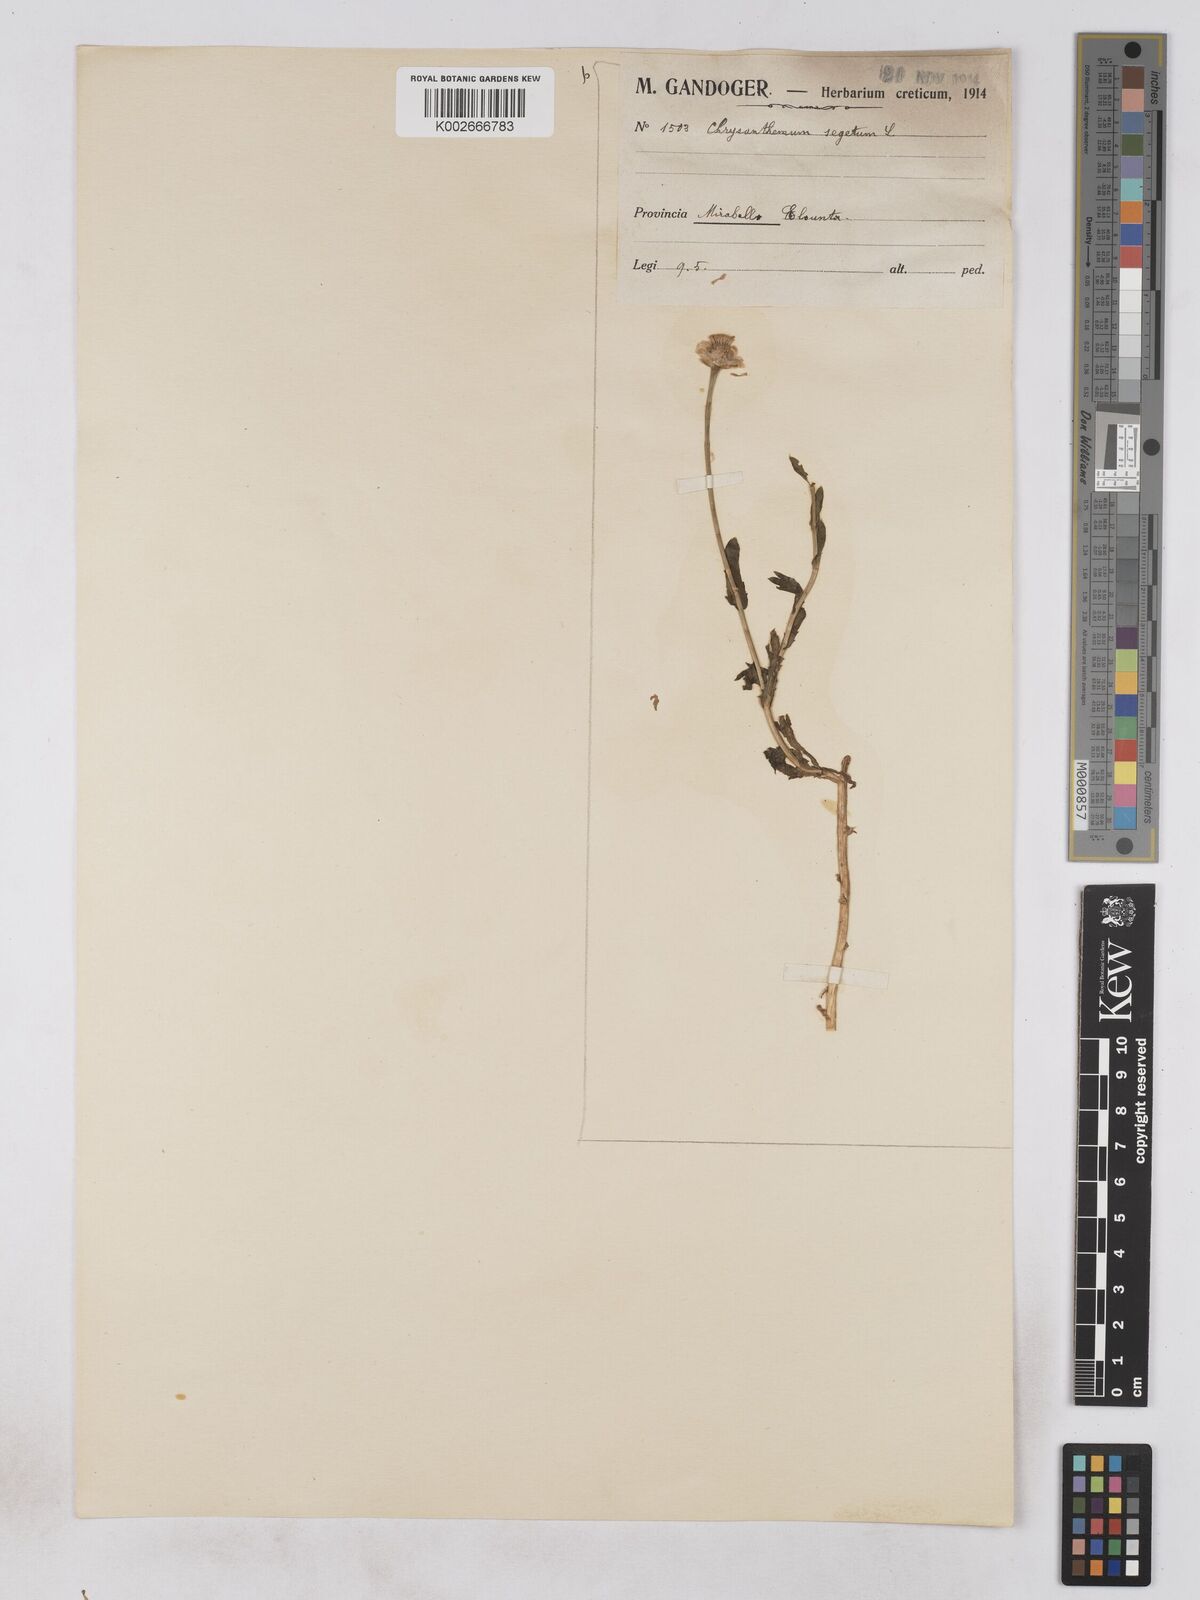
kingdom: Plantae
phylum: Tracheophyta
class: Magnoliopsida
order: Asterales
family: Asteraceae
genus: Glebionis
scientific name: Glebionis segetum
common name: Corndaisy
